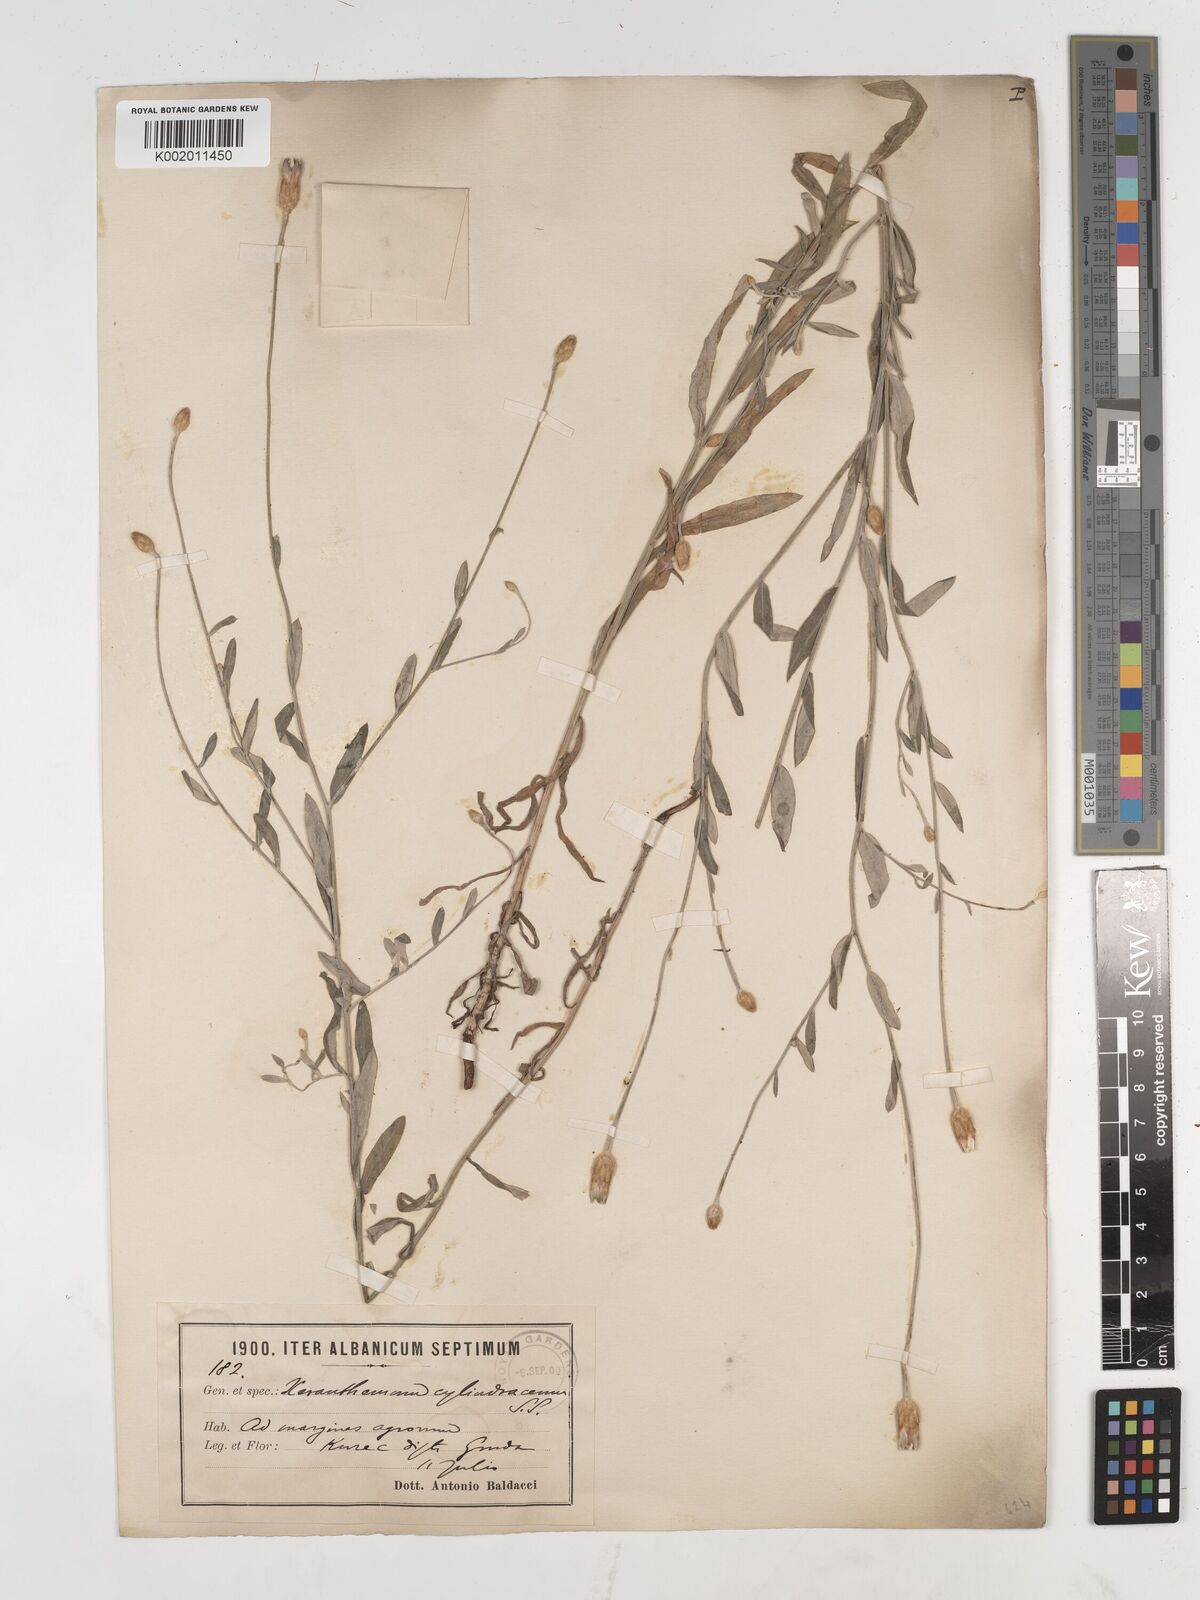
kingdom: Plantae
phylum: Tracheophyta
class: Magnoliopsida
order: Asterales
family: Asteraceae
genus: Xeranthemum
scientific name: Xeranthemum
